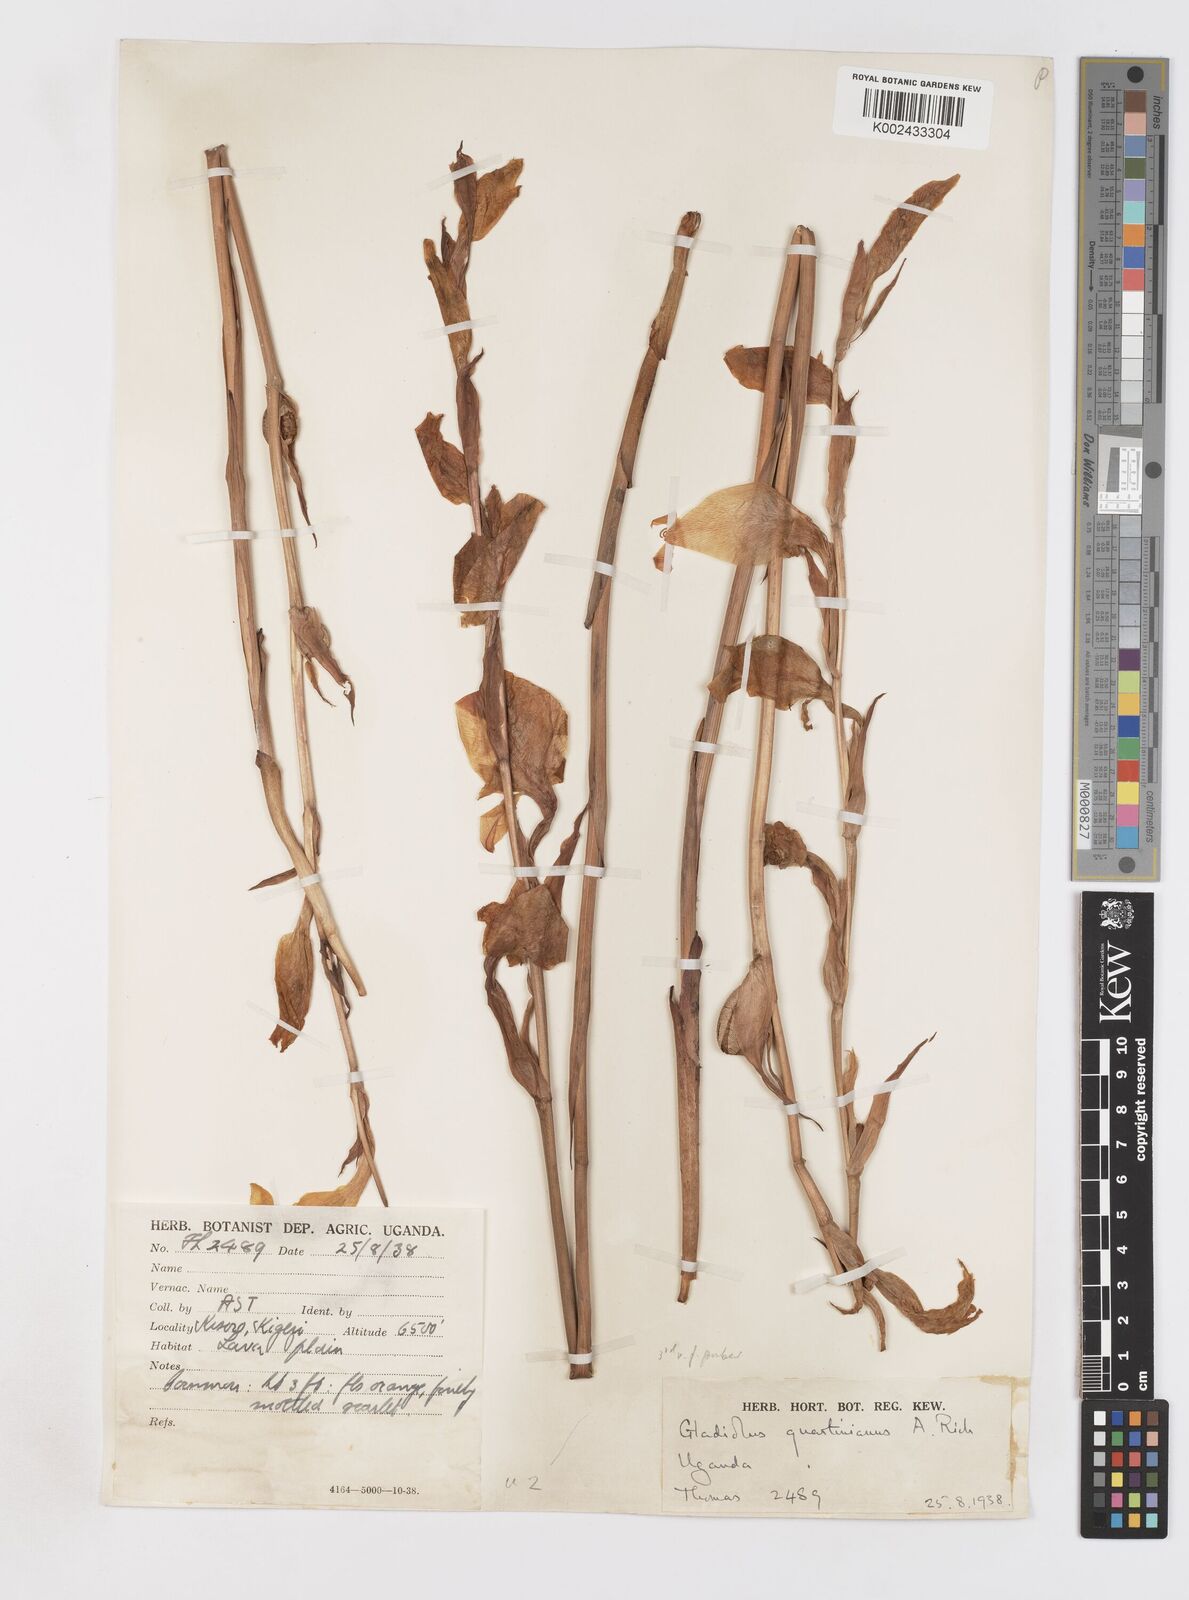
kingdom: Plantae
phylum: Tracheophyta
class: Liliopsida
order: Asparagales
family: Iridaceae
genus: Gladiolus
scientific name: Gladiolus dalenii
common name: Cornflag
